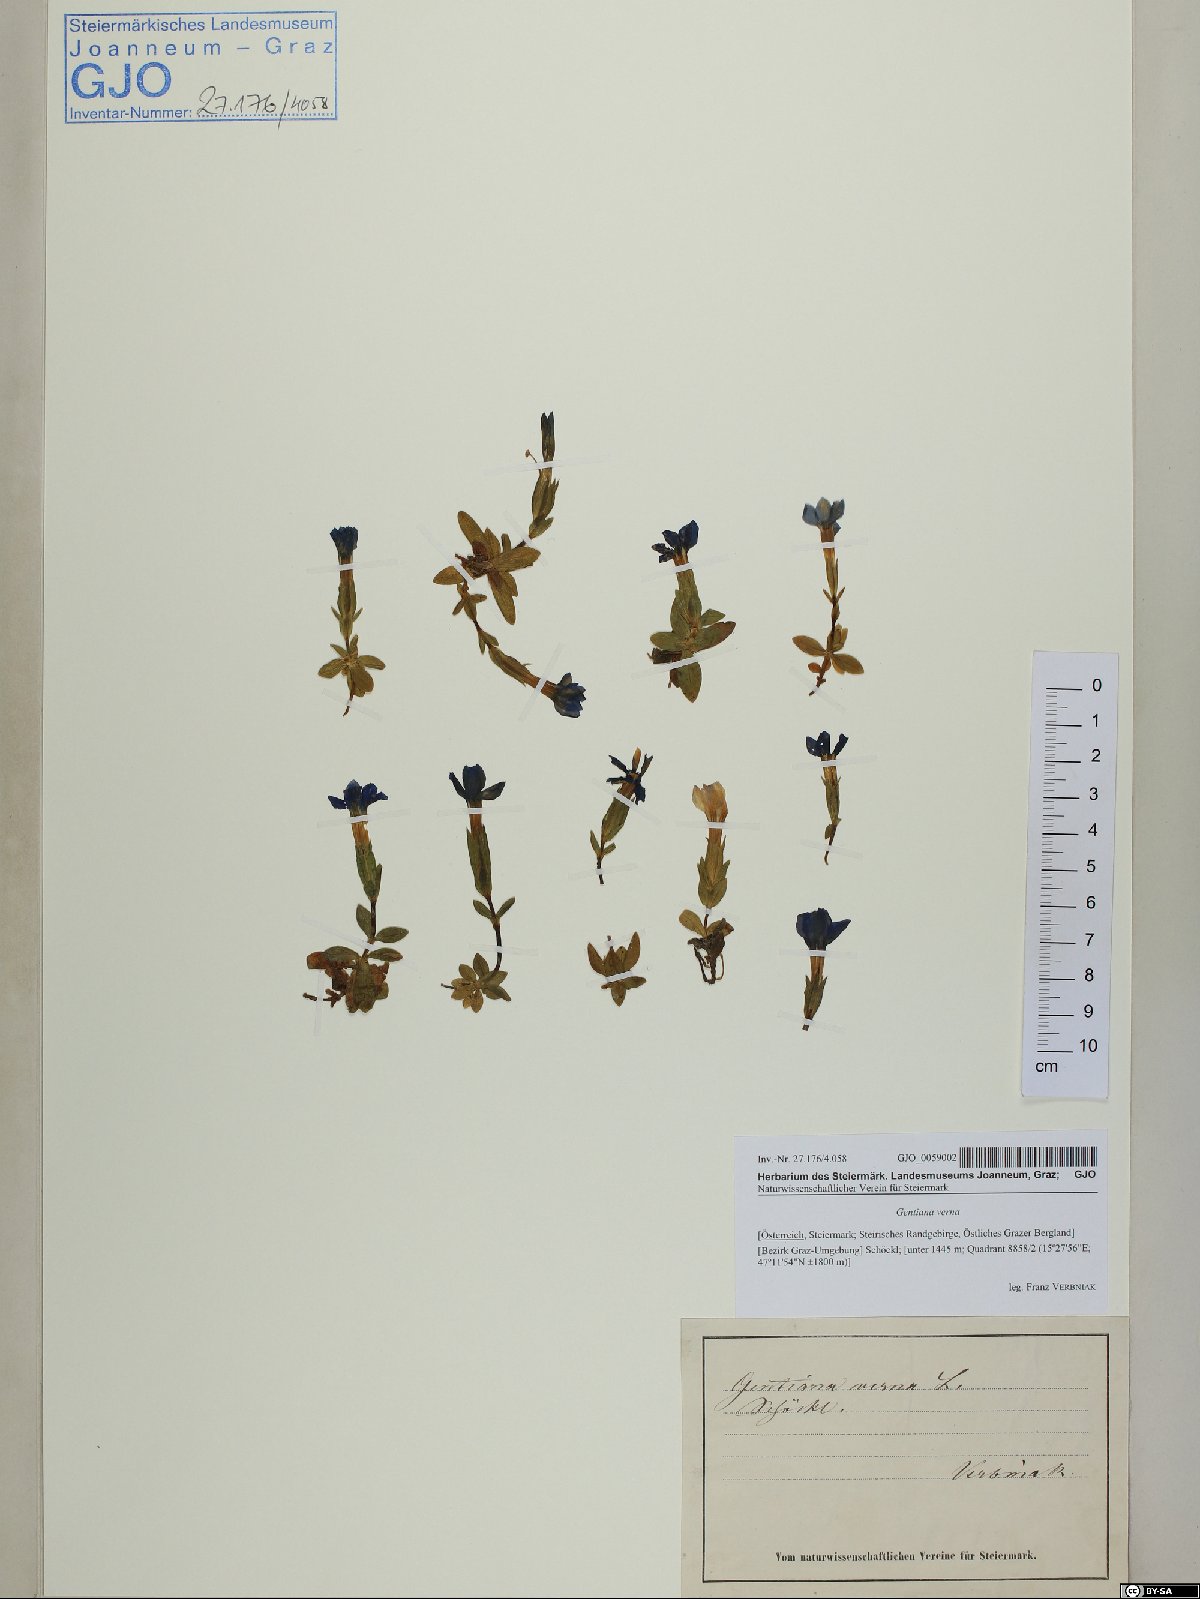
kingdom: Plantae
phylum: Tracheophyta
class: Magnoliopsida
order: Gentianales
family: Gentianaceae
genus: Gentiana
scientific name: Gentiana verna
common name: Spring gentian
